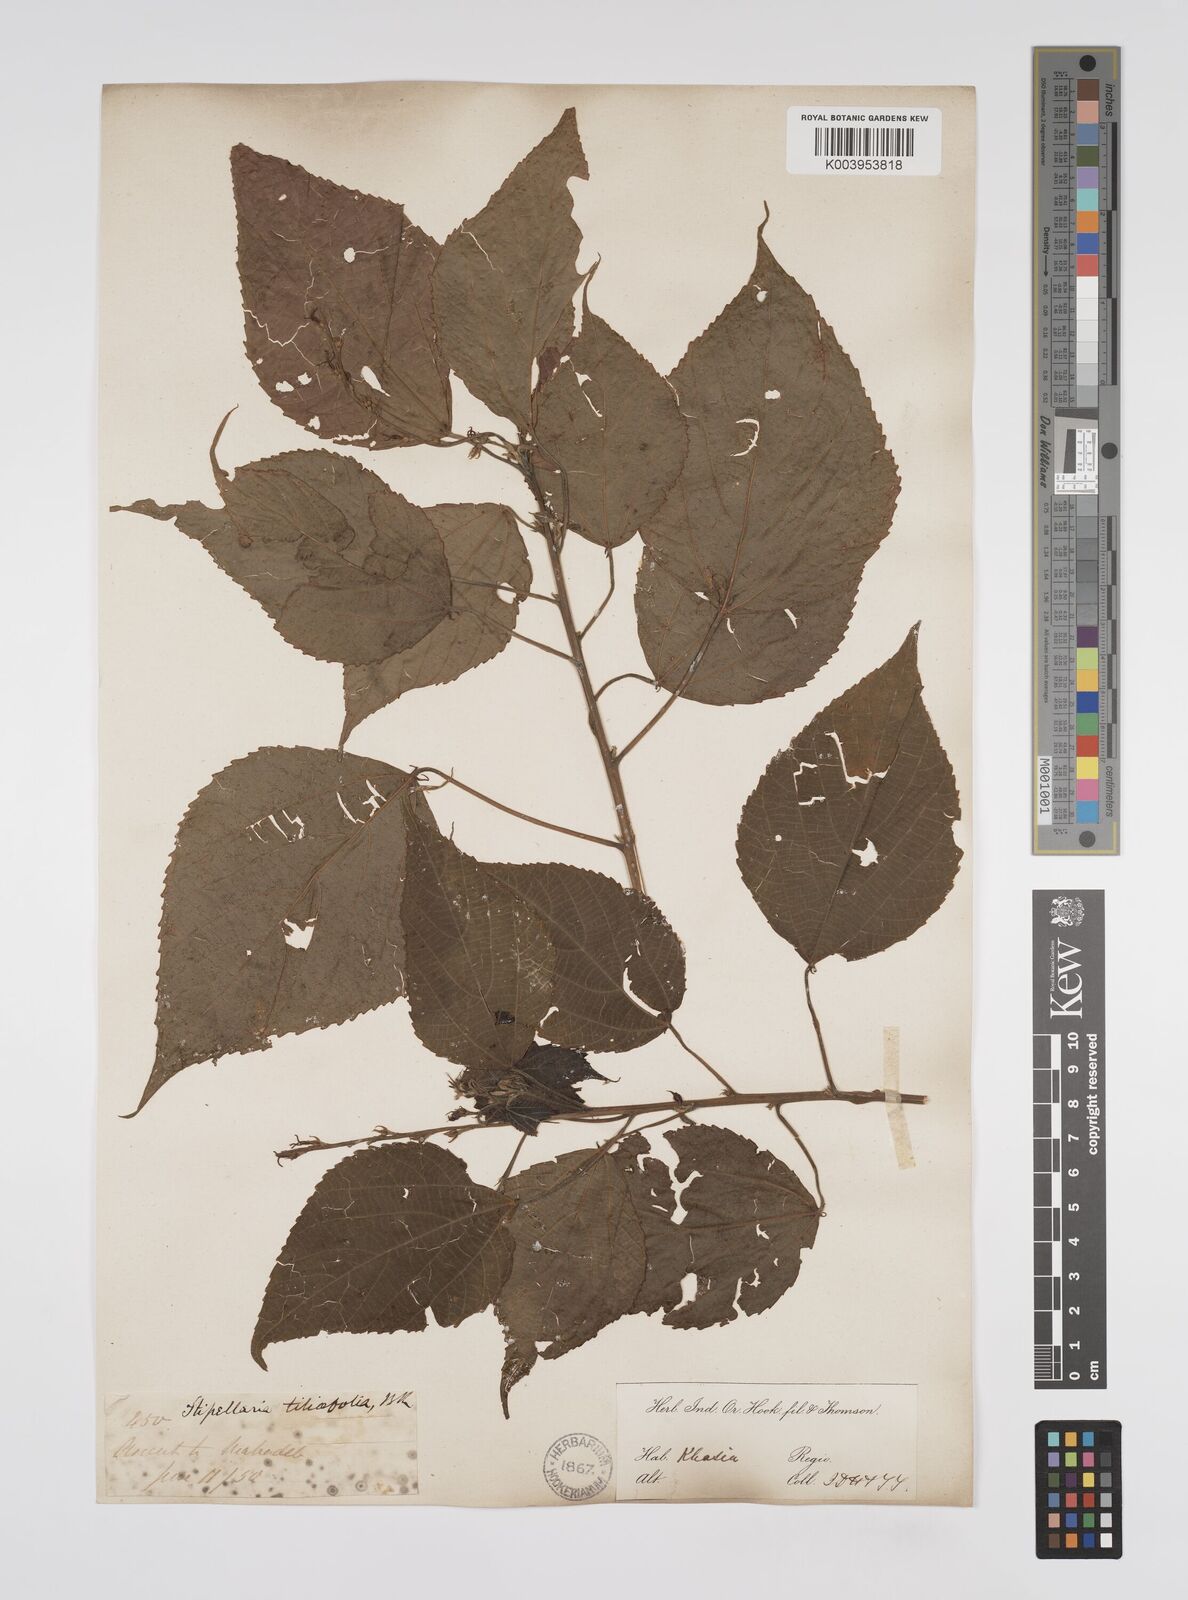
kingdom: Plantae
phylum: Tracheophyta
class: Magnoliopsida
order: Malpighiales
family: Euphorbiaceae
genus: Alchornea
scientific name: Alchornea tiliifolia
